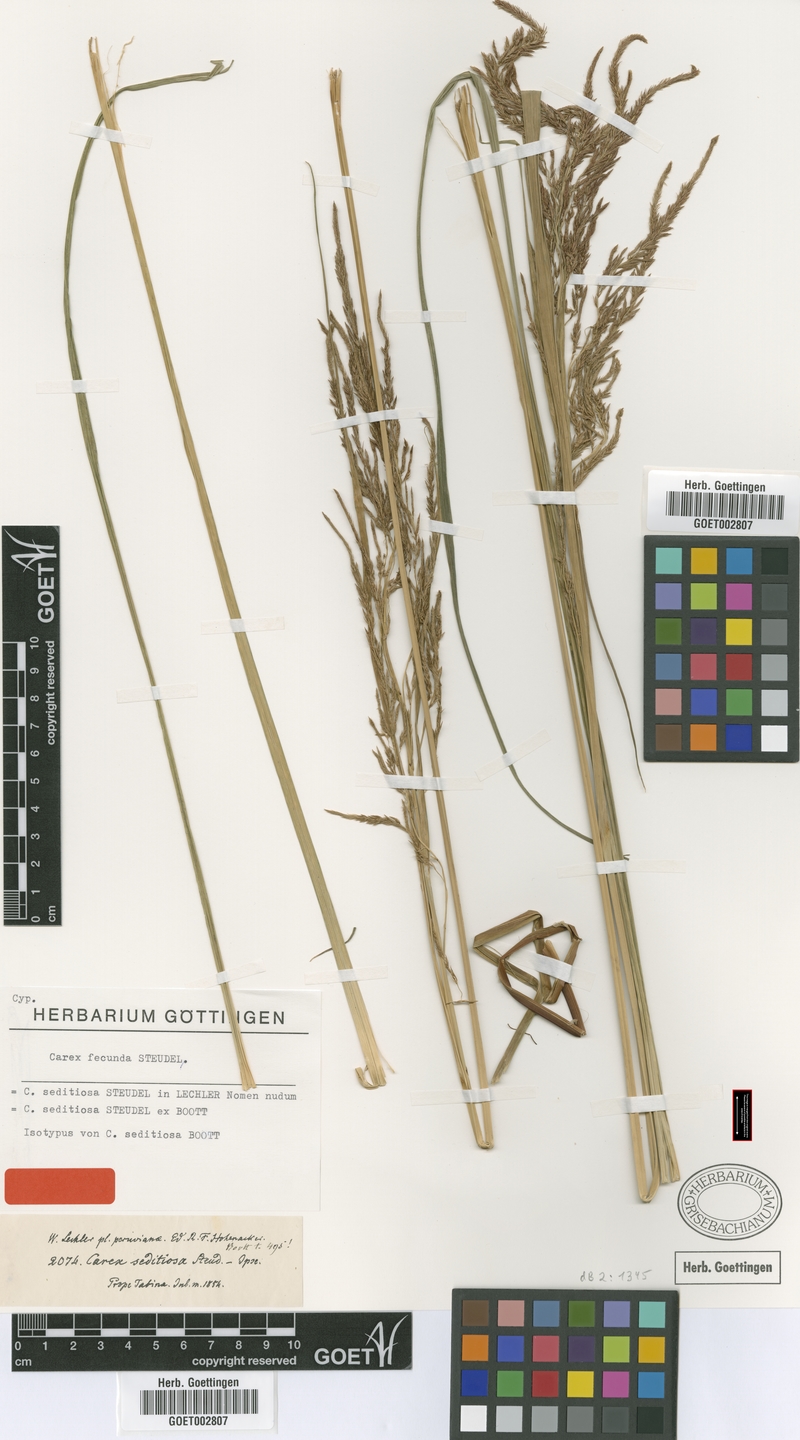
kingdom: Plantae
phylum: Tracheophyta
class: Liliopsida
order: Poales
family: Cyperaceae
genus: Carex
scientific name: Carex fecunda
